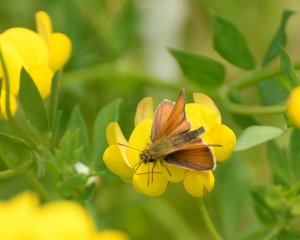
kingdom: Animalia
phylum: Arthropoda
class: Insecta
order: Lepidoptera
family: Hesperiidae
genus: Thymelicus
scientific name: Thymelicus lineola
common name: European Skipper
